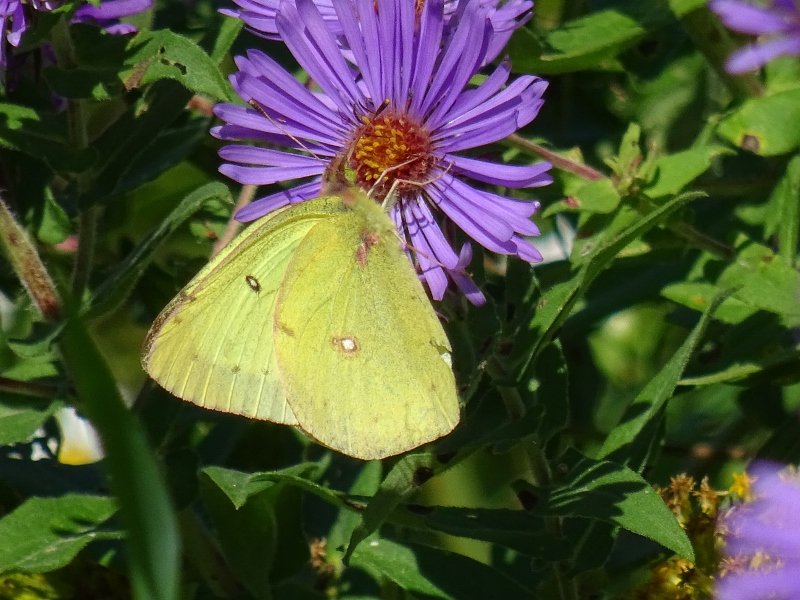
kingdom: Animalia
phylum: Arthropoda
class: Insecta
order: Lepidoptera
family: Pieridae
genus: Colias
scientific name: Colias philodice
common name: Clouded Sulphur
